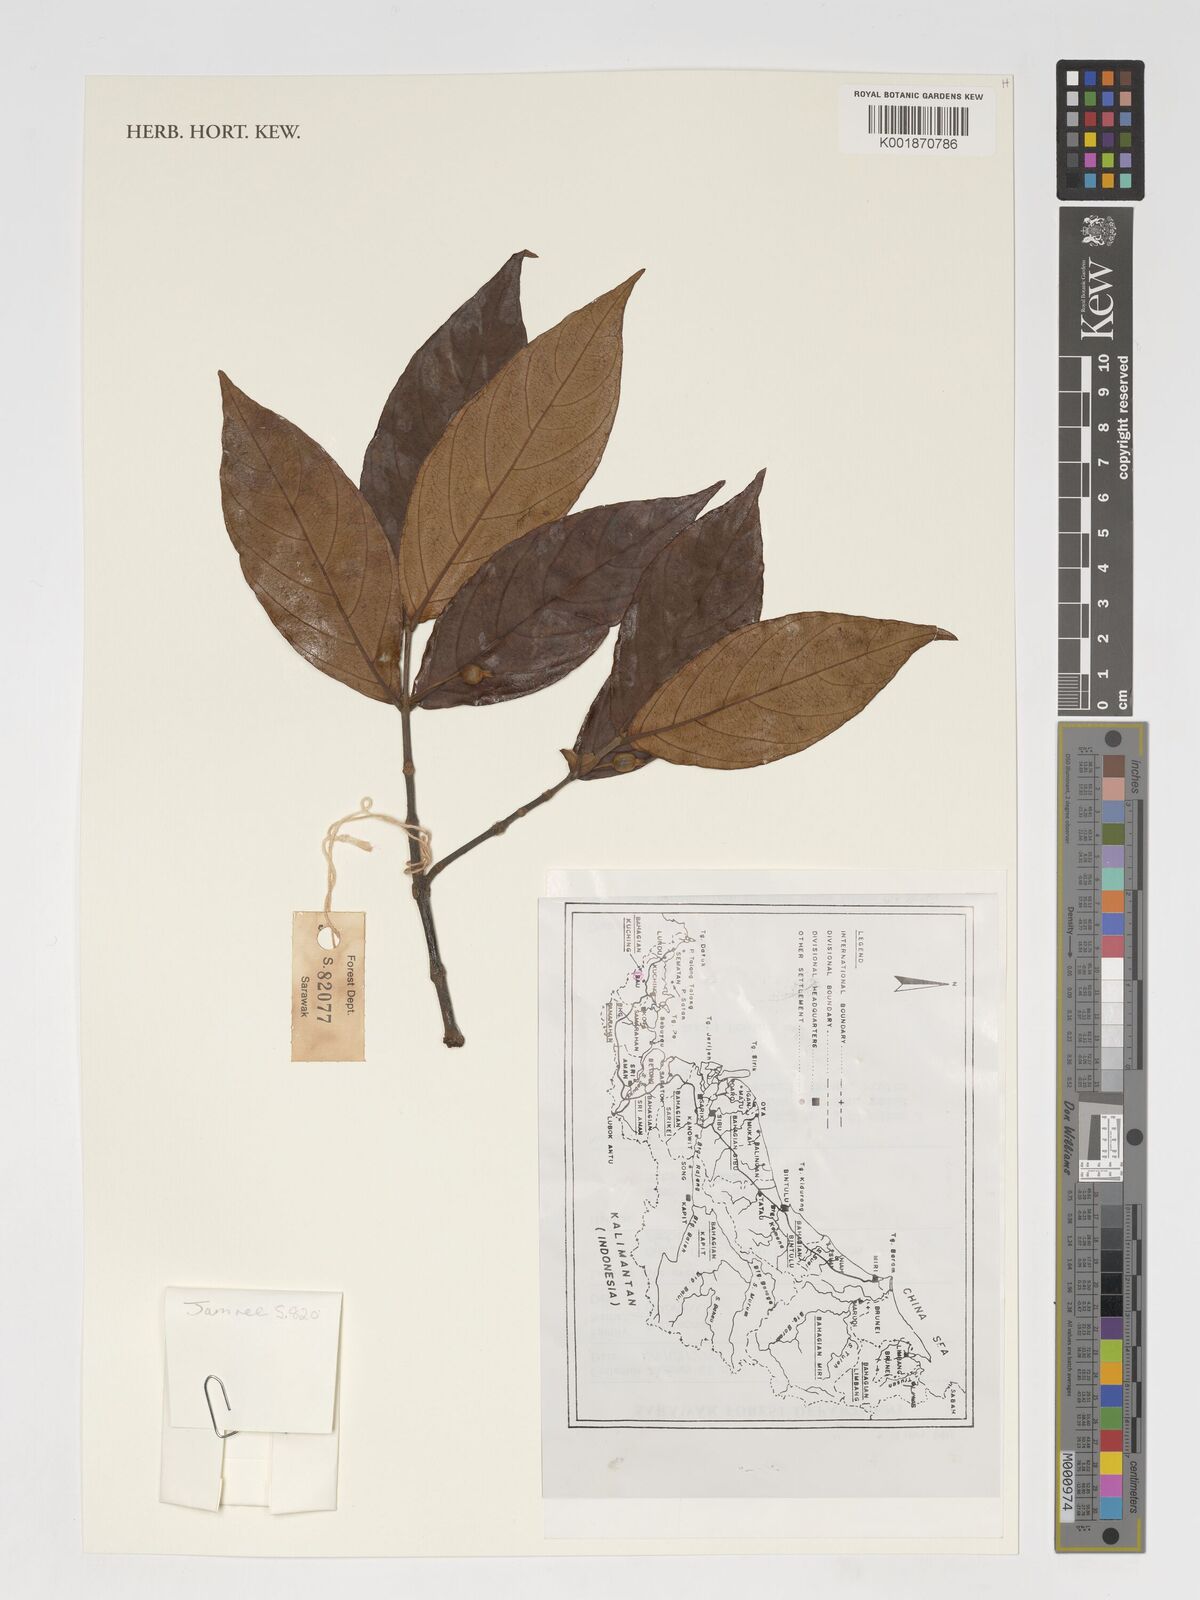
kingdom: Plantae
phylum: Tracheophyta
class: Magnoliopsida
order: Gentianales
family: Rubiaceae
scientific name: Rubiaceae
